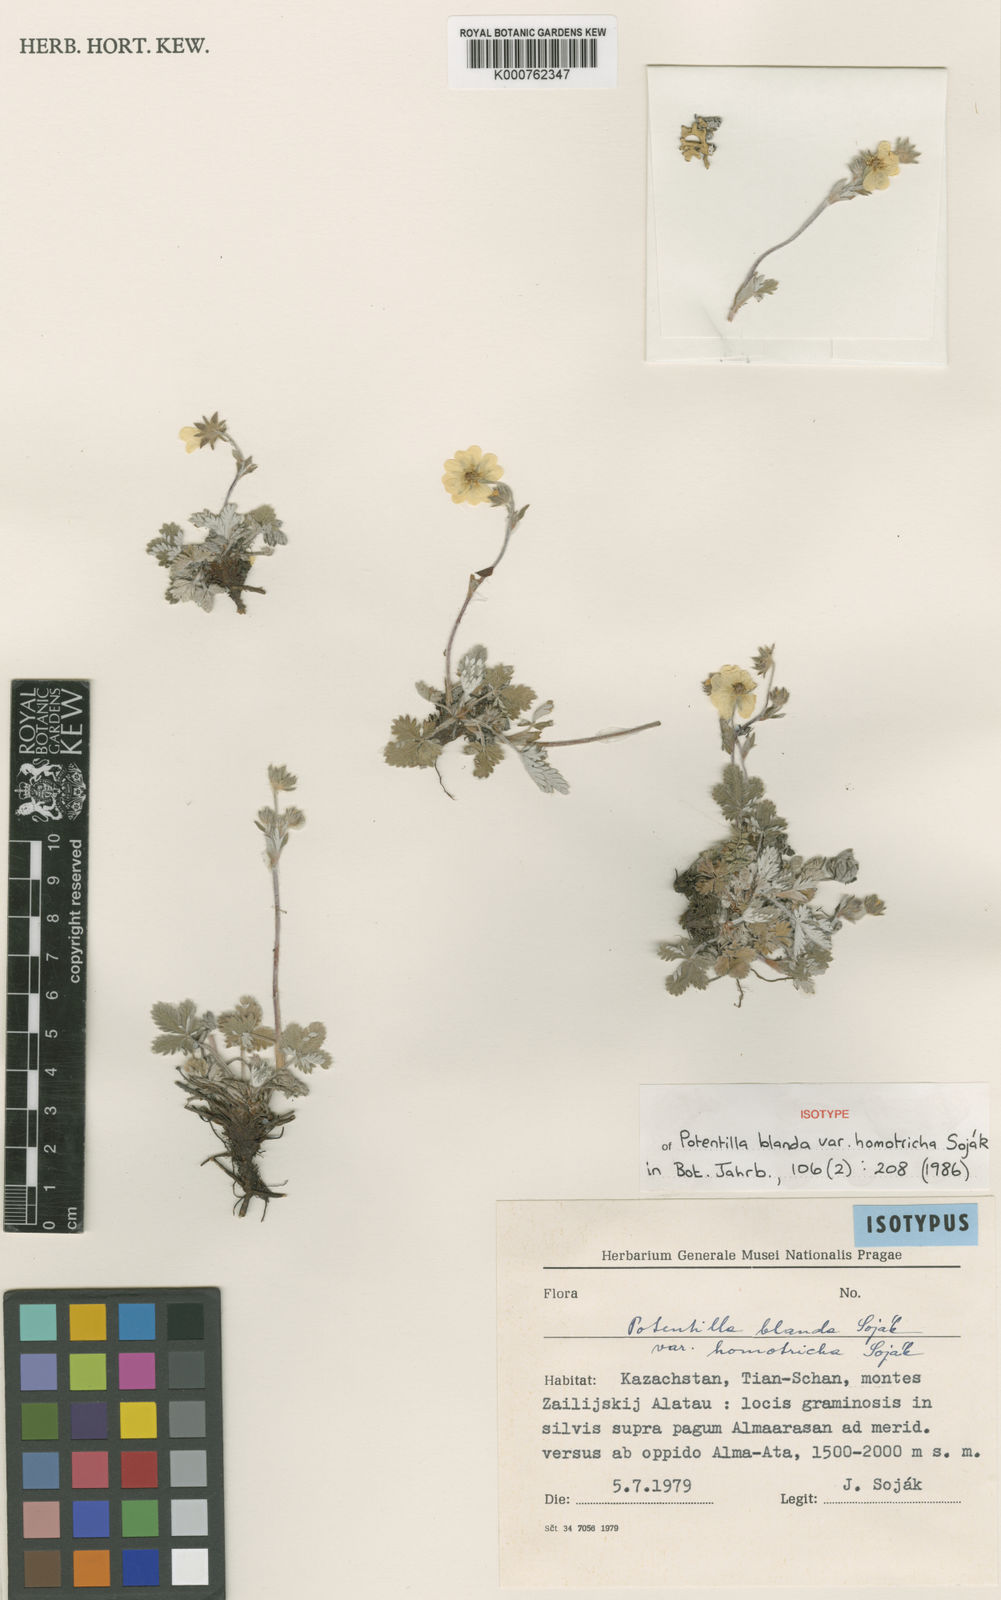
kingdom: Plantae
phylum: Tracheophyta
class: Magnoliopsida
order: Rosales
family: Rosaceae
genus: Potentilla
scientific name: Potentilla
